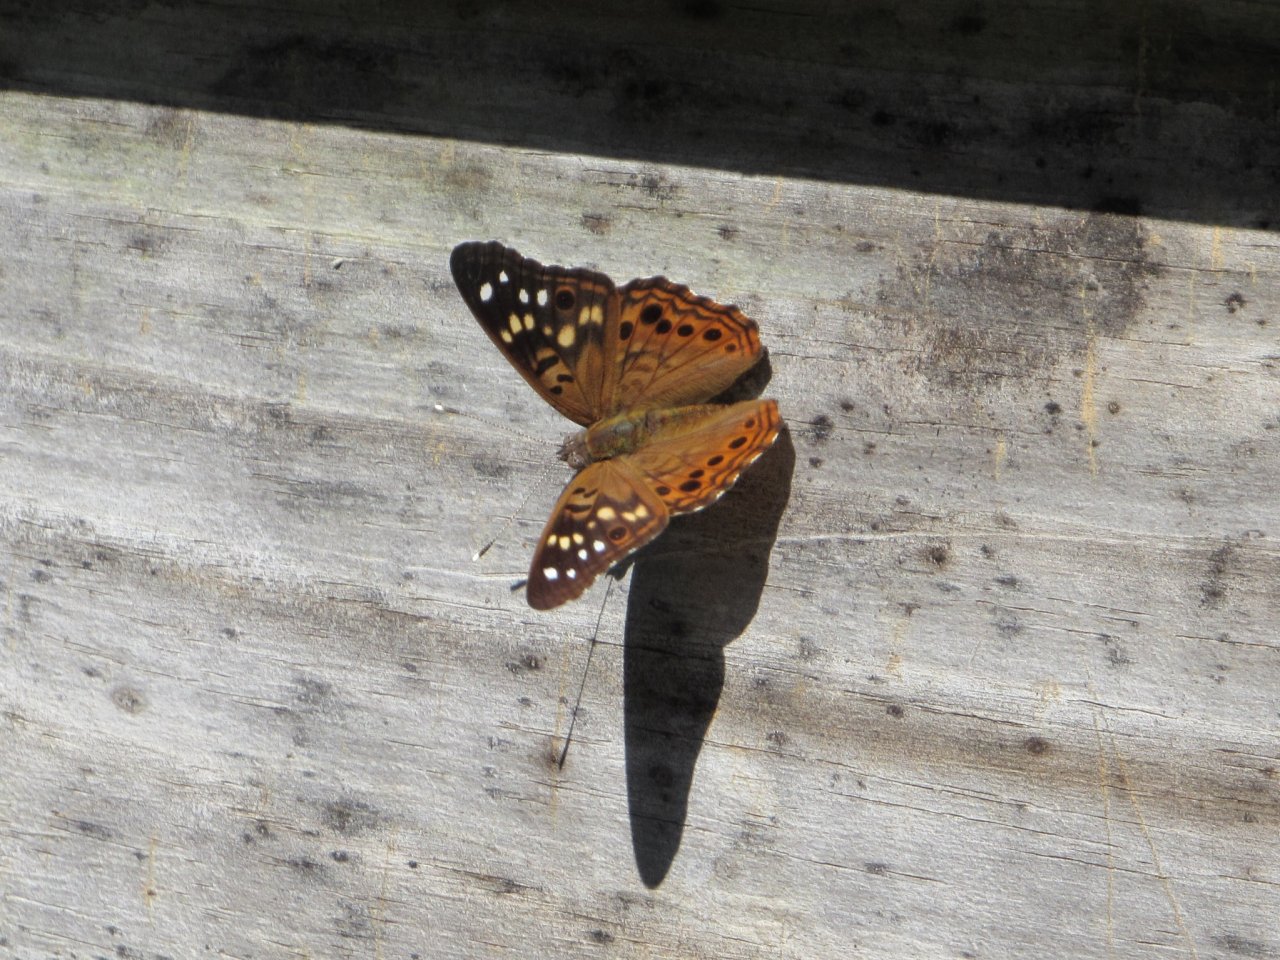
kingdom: Animalia
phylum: Arthropoda
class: Insecta
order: Lepidoptera
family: Nymphalidae
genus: Asterocampa
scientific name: Asterocampa celtis
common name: Hackberry Emperor
